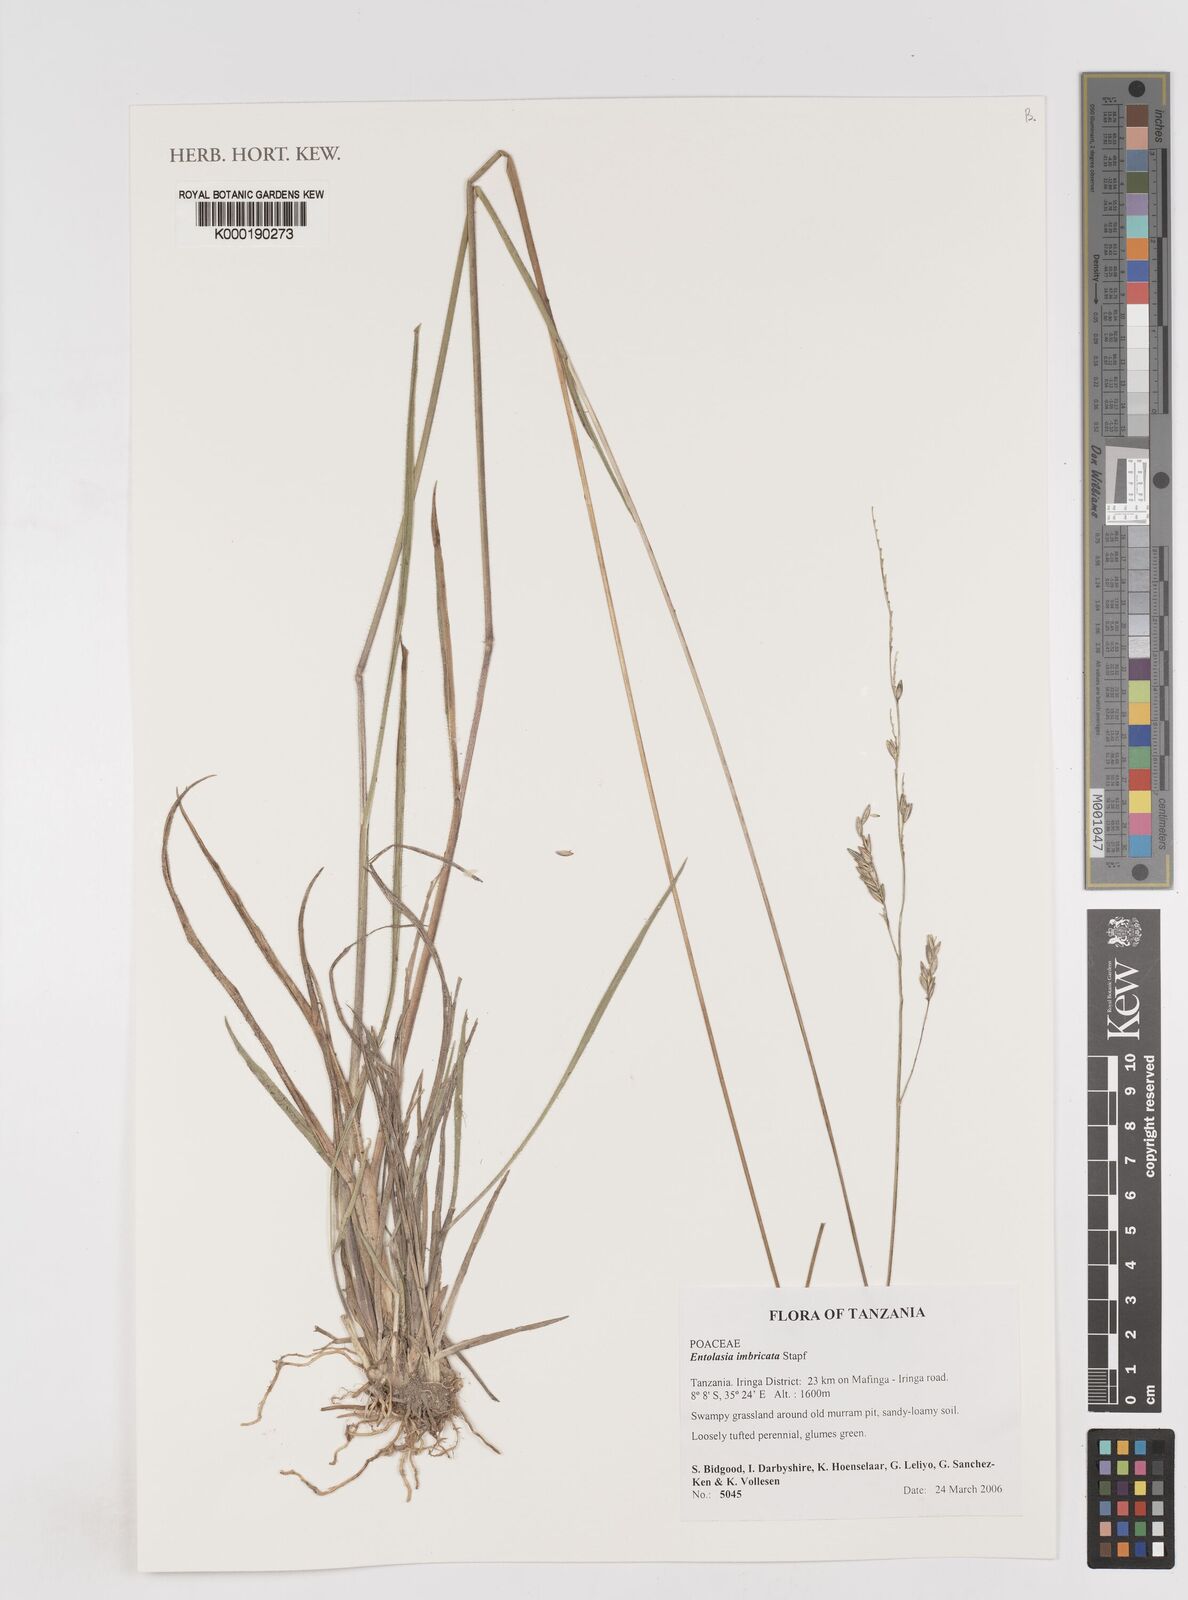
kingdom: Plantae
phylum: Tracheophyta
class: Liliopsida
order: Poales
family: Poaceae
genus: Entolasia
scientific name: Entolasia imbricata
